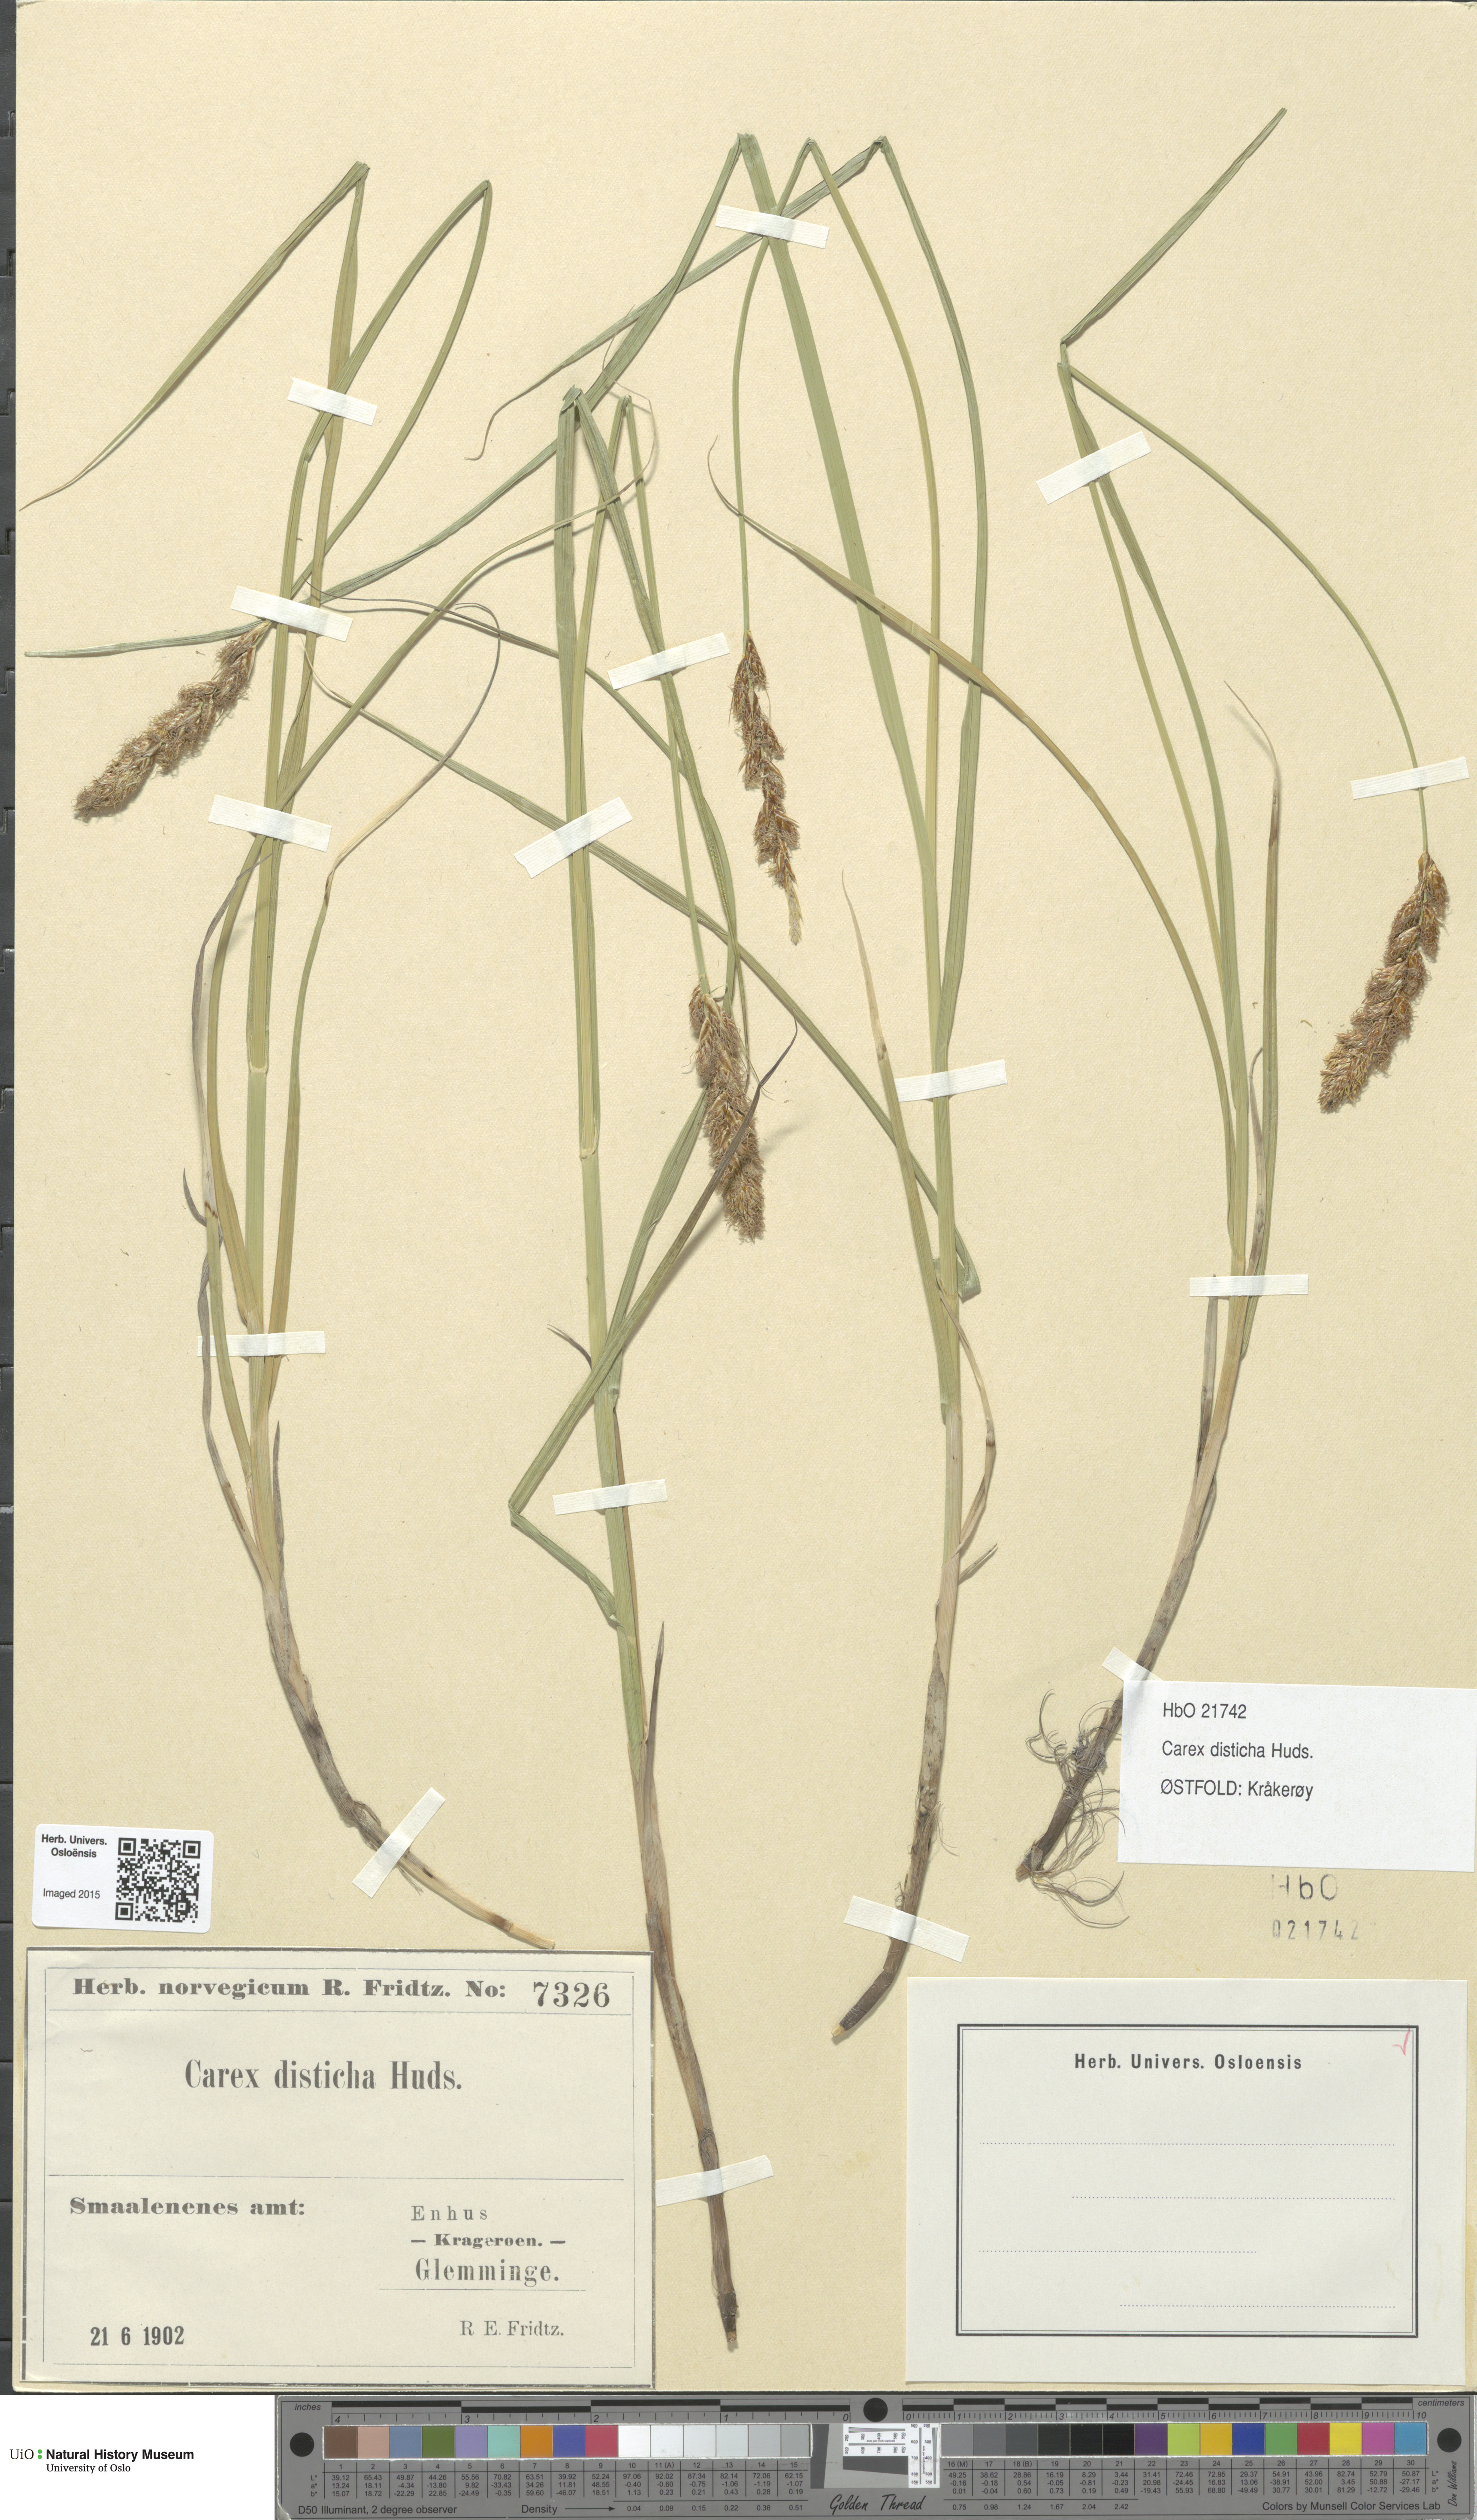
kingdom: Plantae
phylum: Tracheophyta
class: Liliopsida
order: Poales
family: Cyperaceae
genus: Carex
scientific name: Carex disticha
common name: Brown sedge
